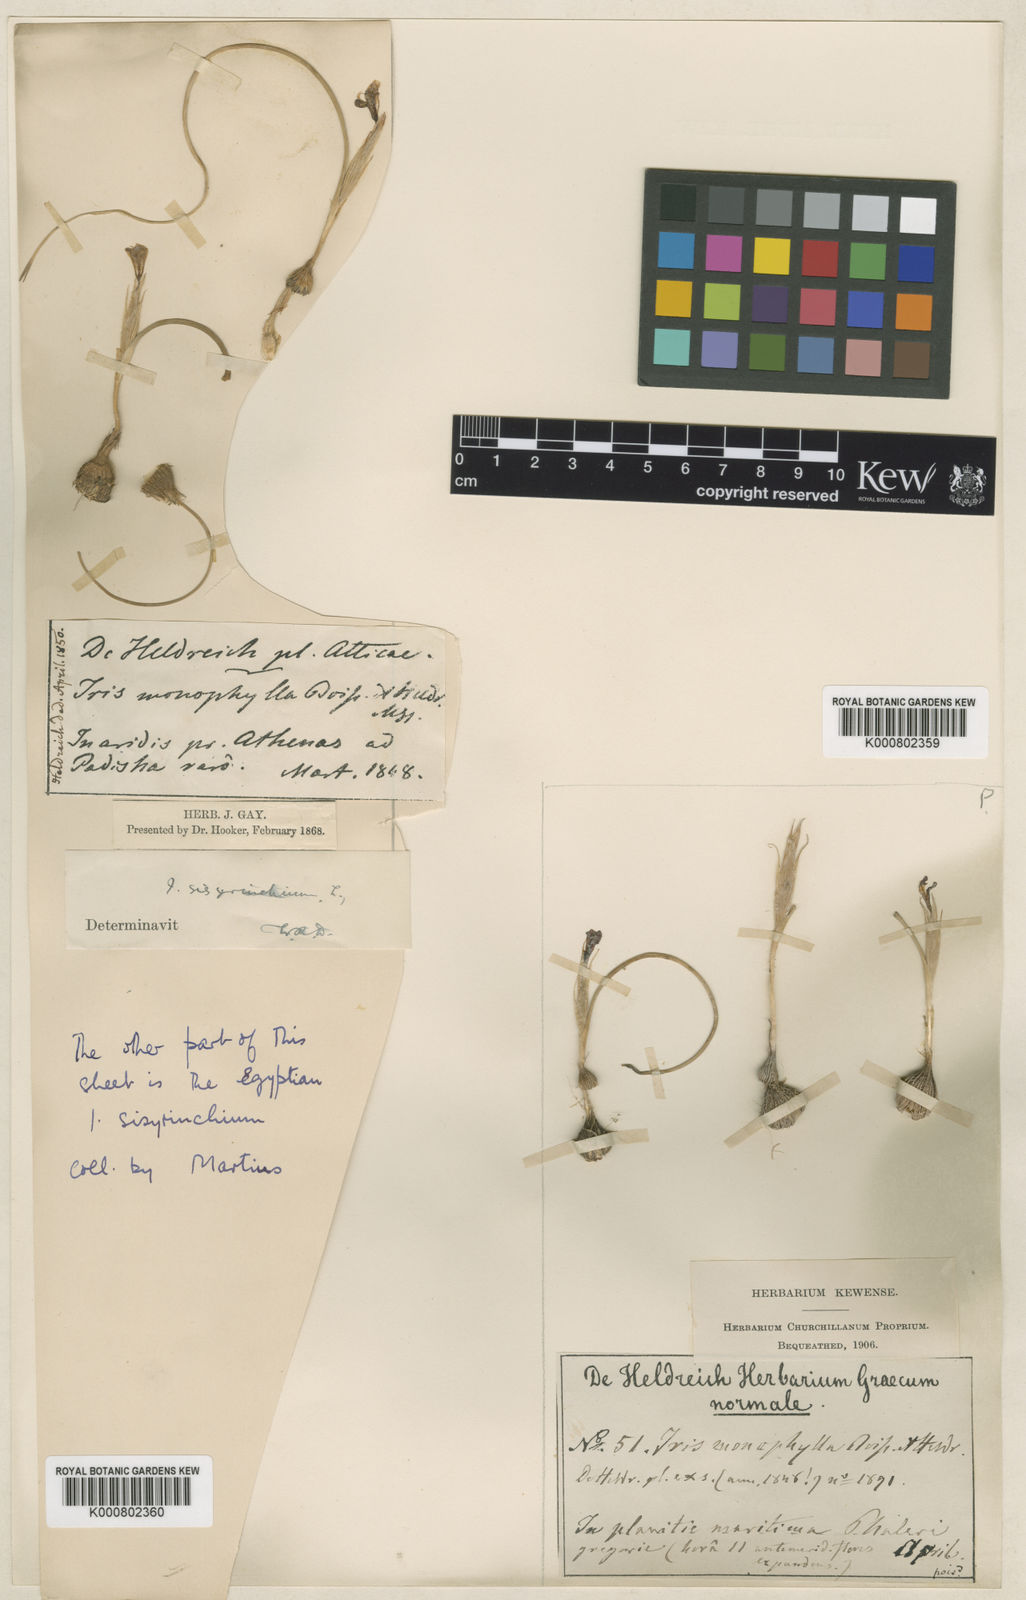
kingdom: Plantae
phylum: Tracheophyta
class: Liliopsida
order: Asparagales
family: Iridaceae
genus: Moraea
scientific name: Moraea sisyrinchium
